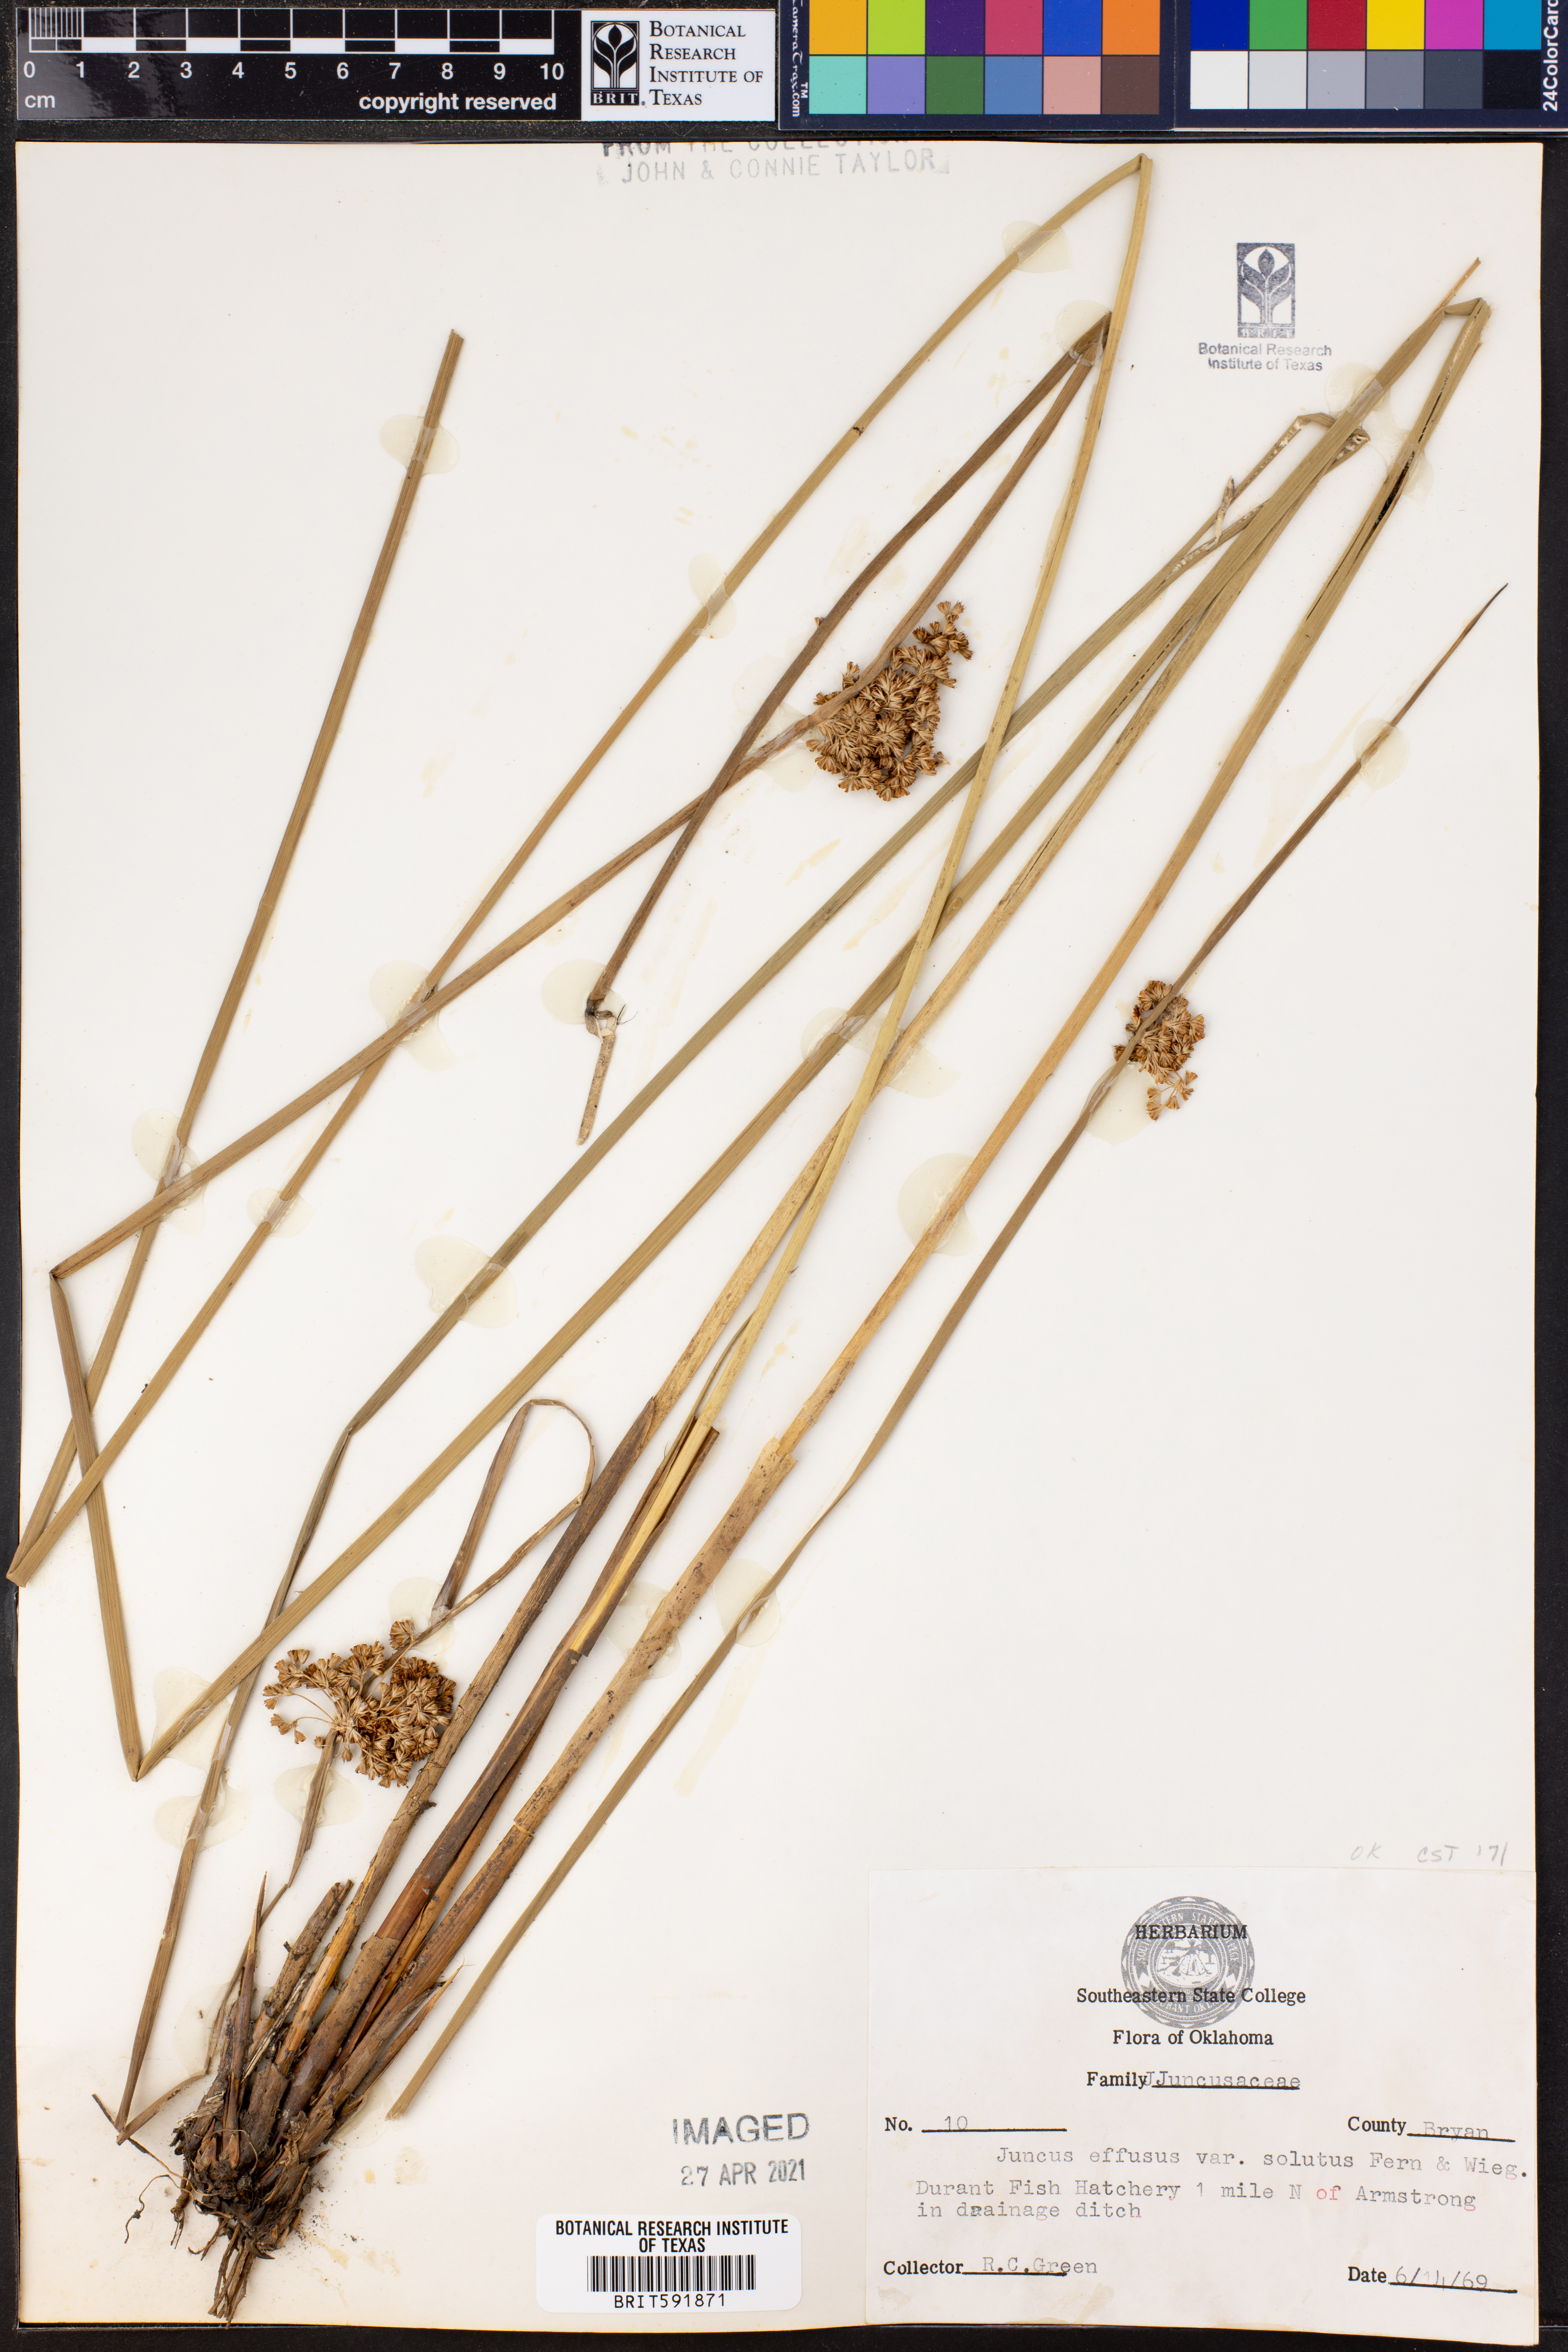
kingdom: Plantae
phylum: Tracheophyta
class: Liliopsida
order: Poales
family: Juncaceae
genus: Juncus
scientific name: Juncus effusus
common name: Soft rush
